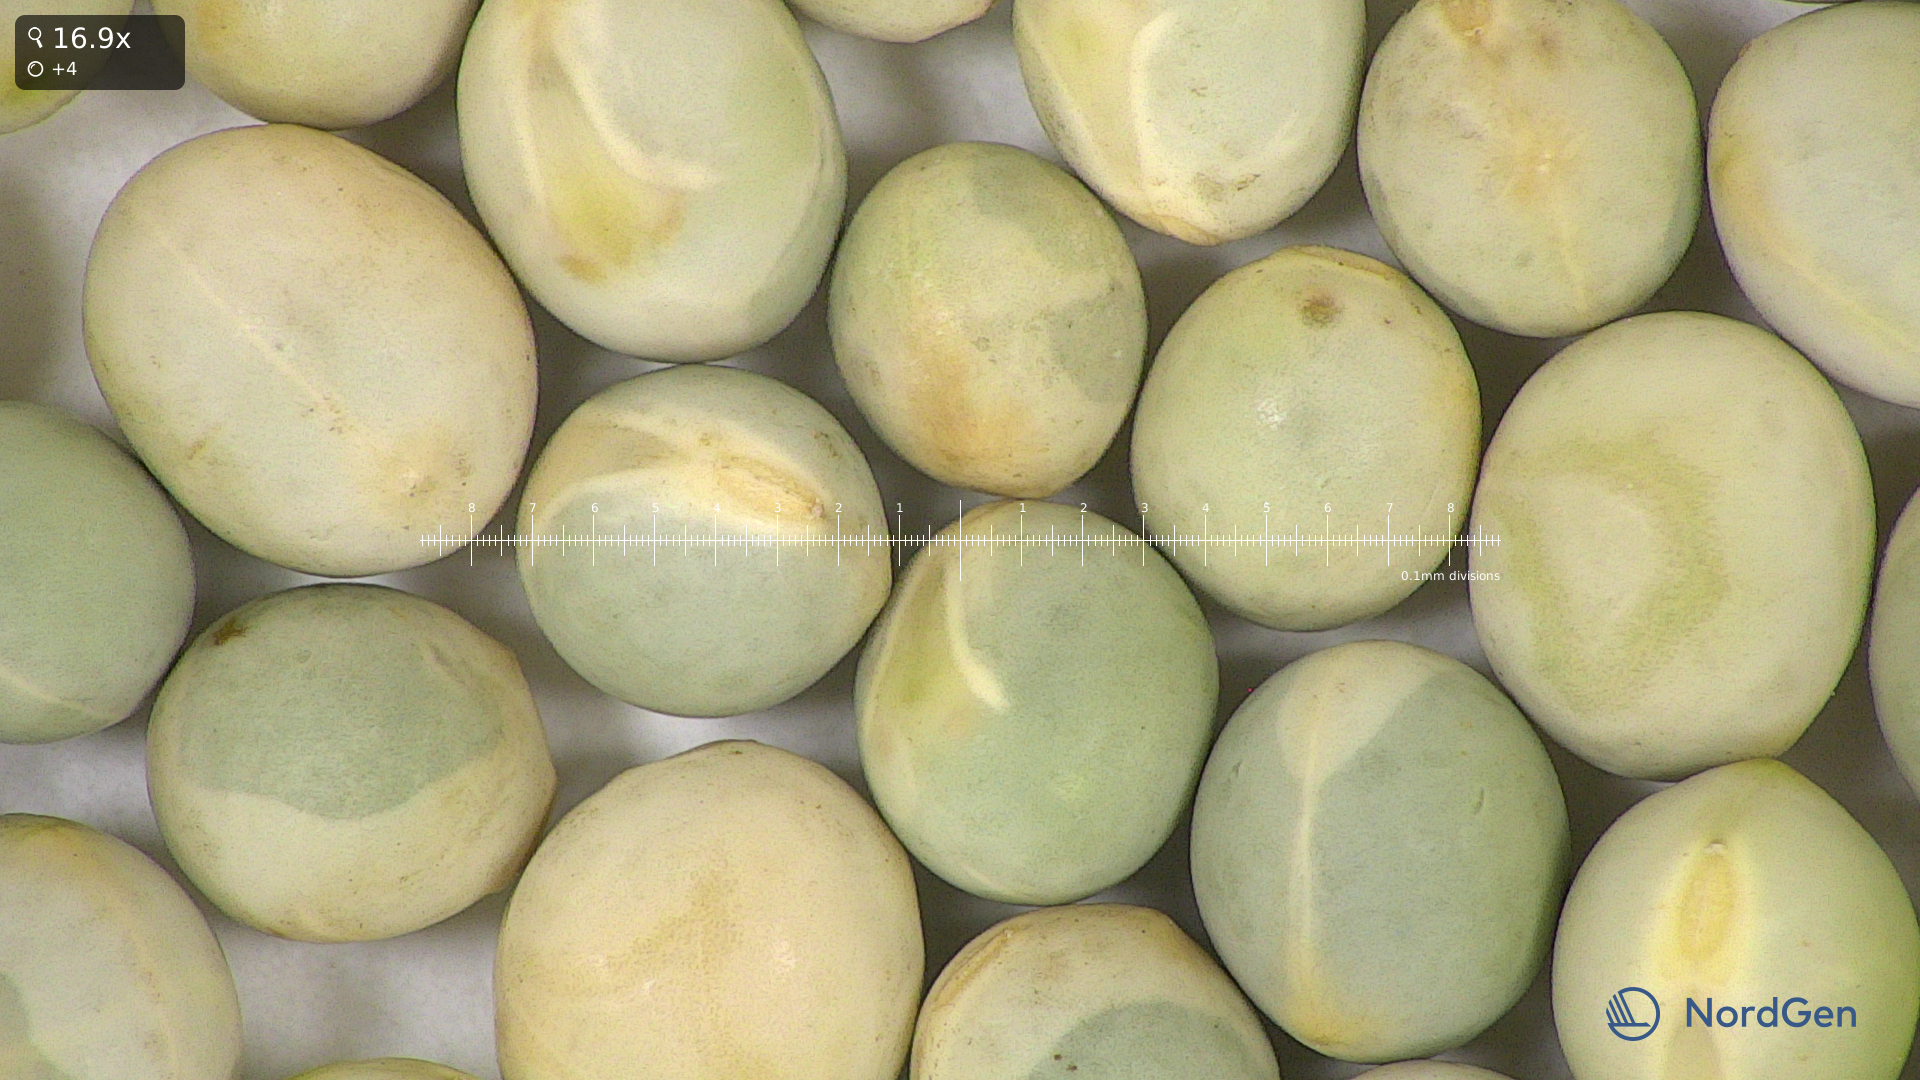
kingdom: Plantae
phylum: Tracheophyta
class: Magnoliopsida
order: Fabales
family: Fabaceae
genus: Lathyrus
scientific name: Lathyrus oleraceus
